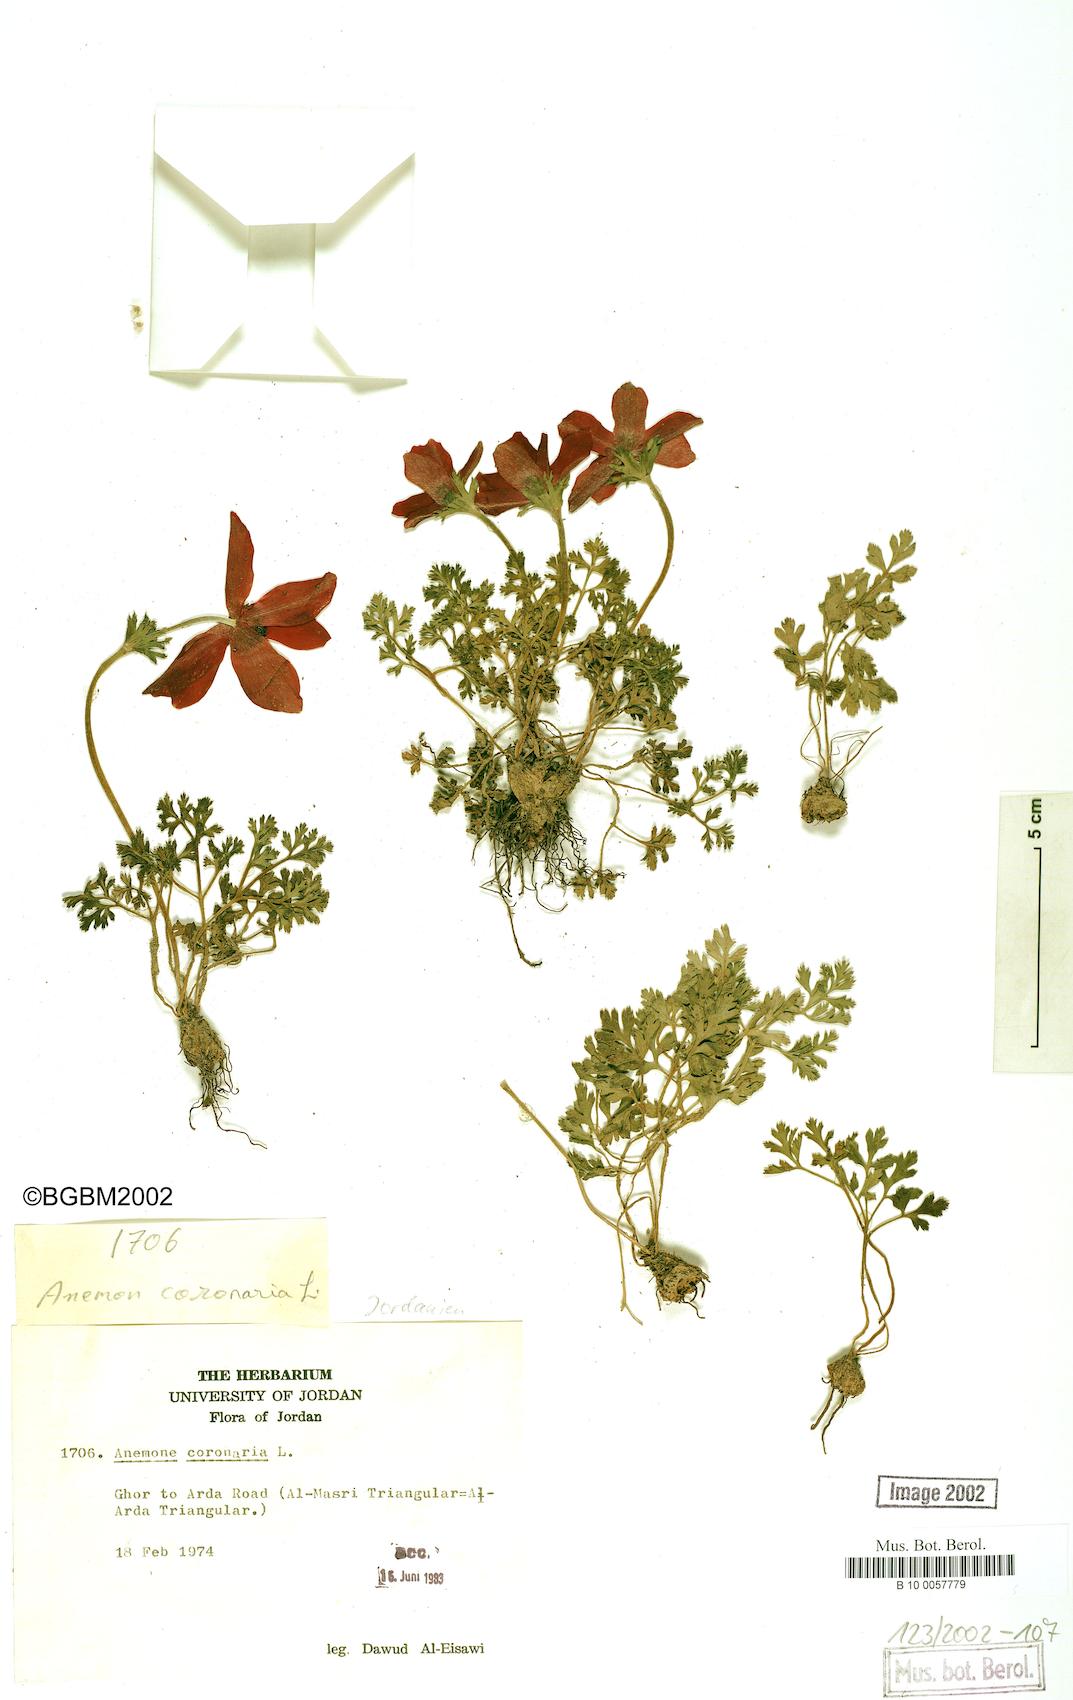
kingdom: Plantae
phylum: Tracheophyta
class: Magnoliopsida
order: Ranunculales
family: Ranunculaceae
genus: Anemone
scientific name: Anemone coronaria
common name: Poppy anemone
